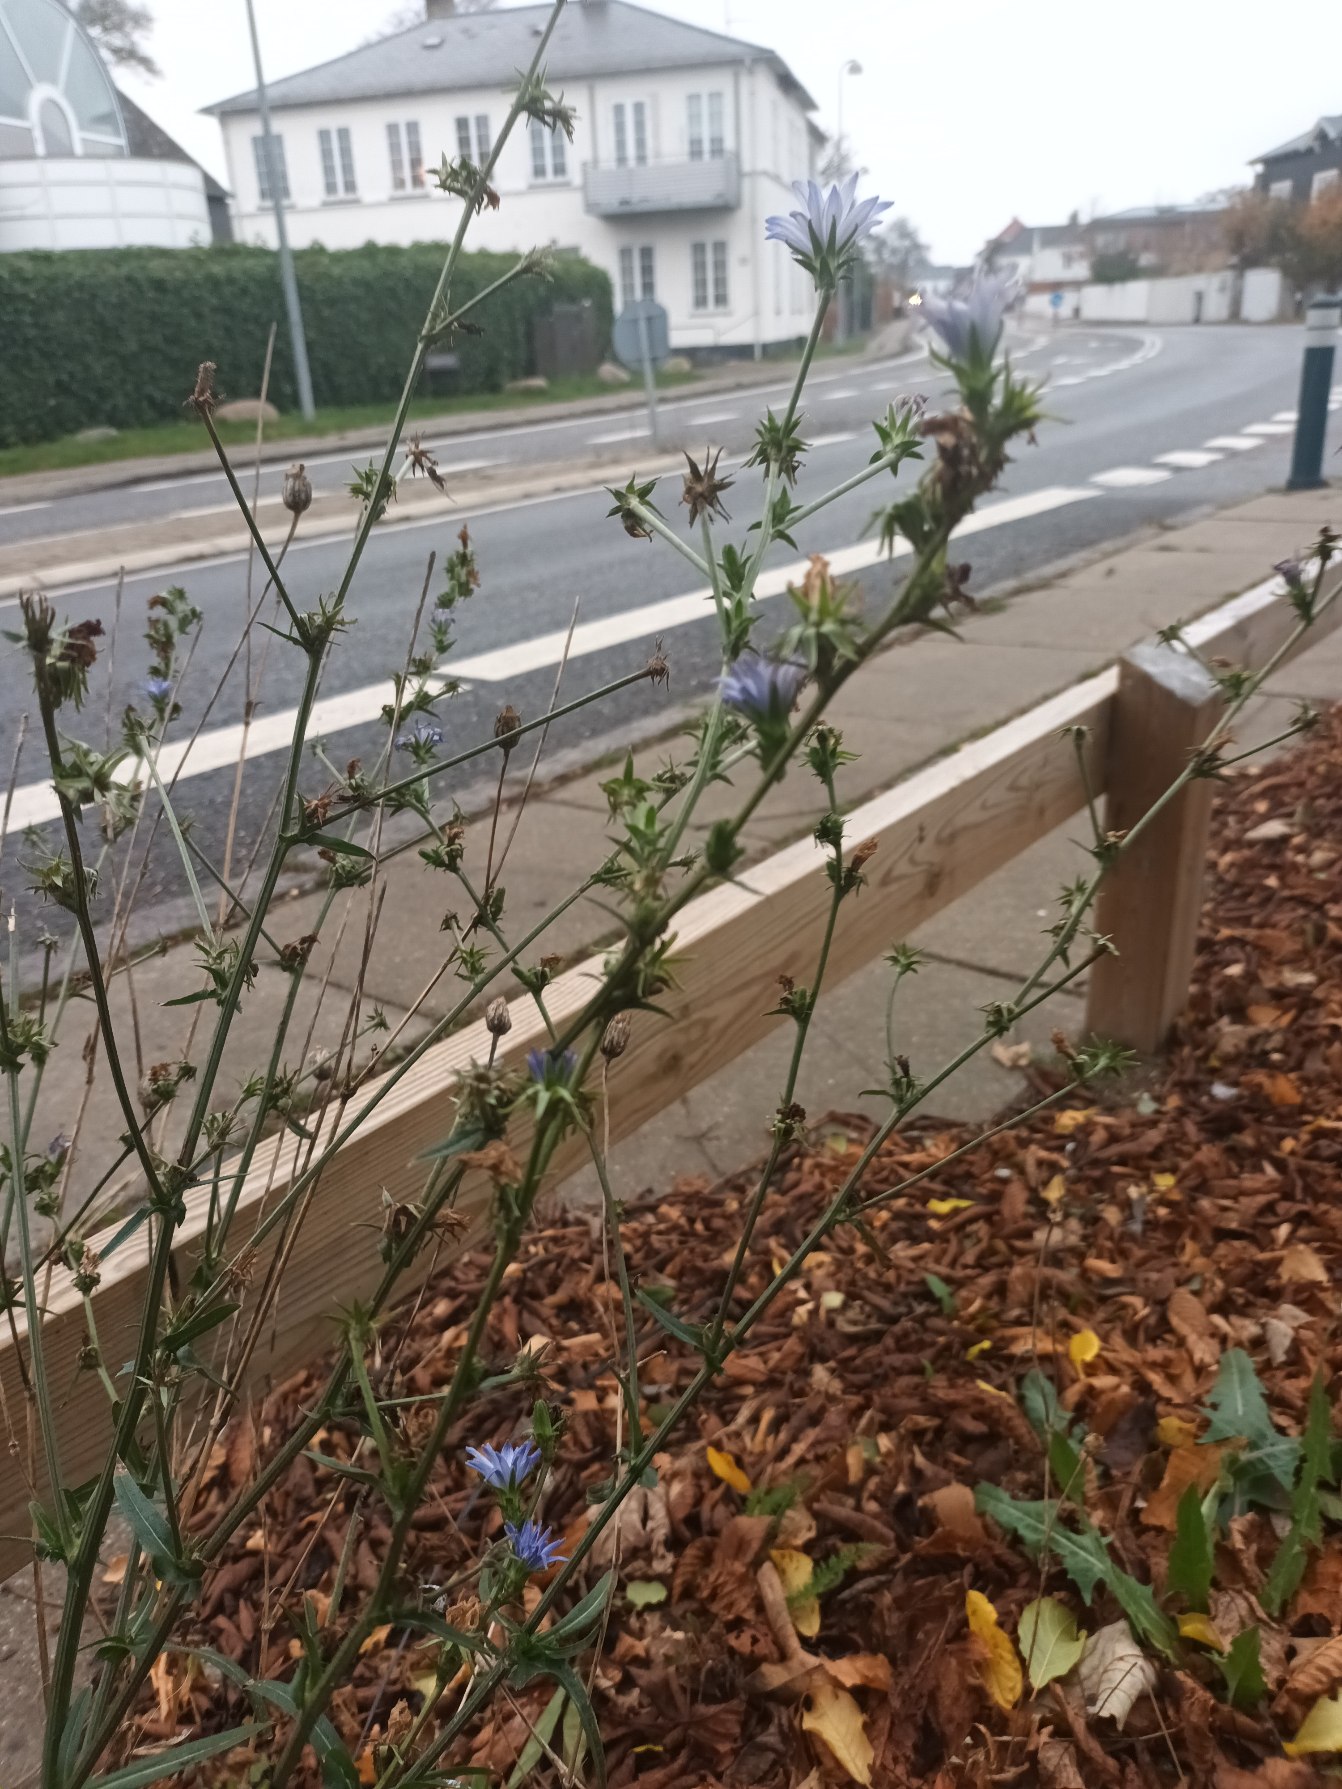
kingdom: Plantae
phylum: Tracheophyta
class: Magnoliopsida
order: Asterales
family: Asteraceae
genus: Cichorium
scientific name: Cichorium intybus
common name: Cikorie
